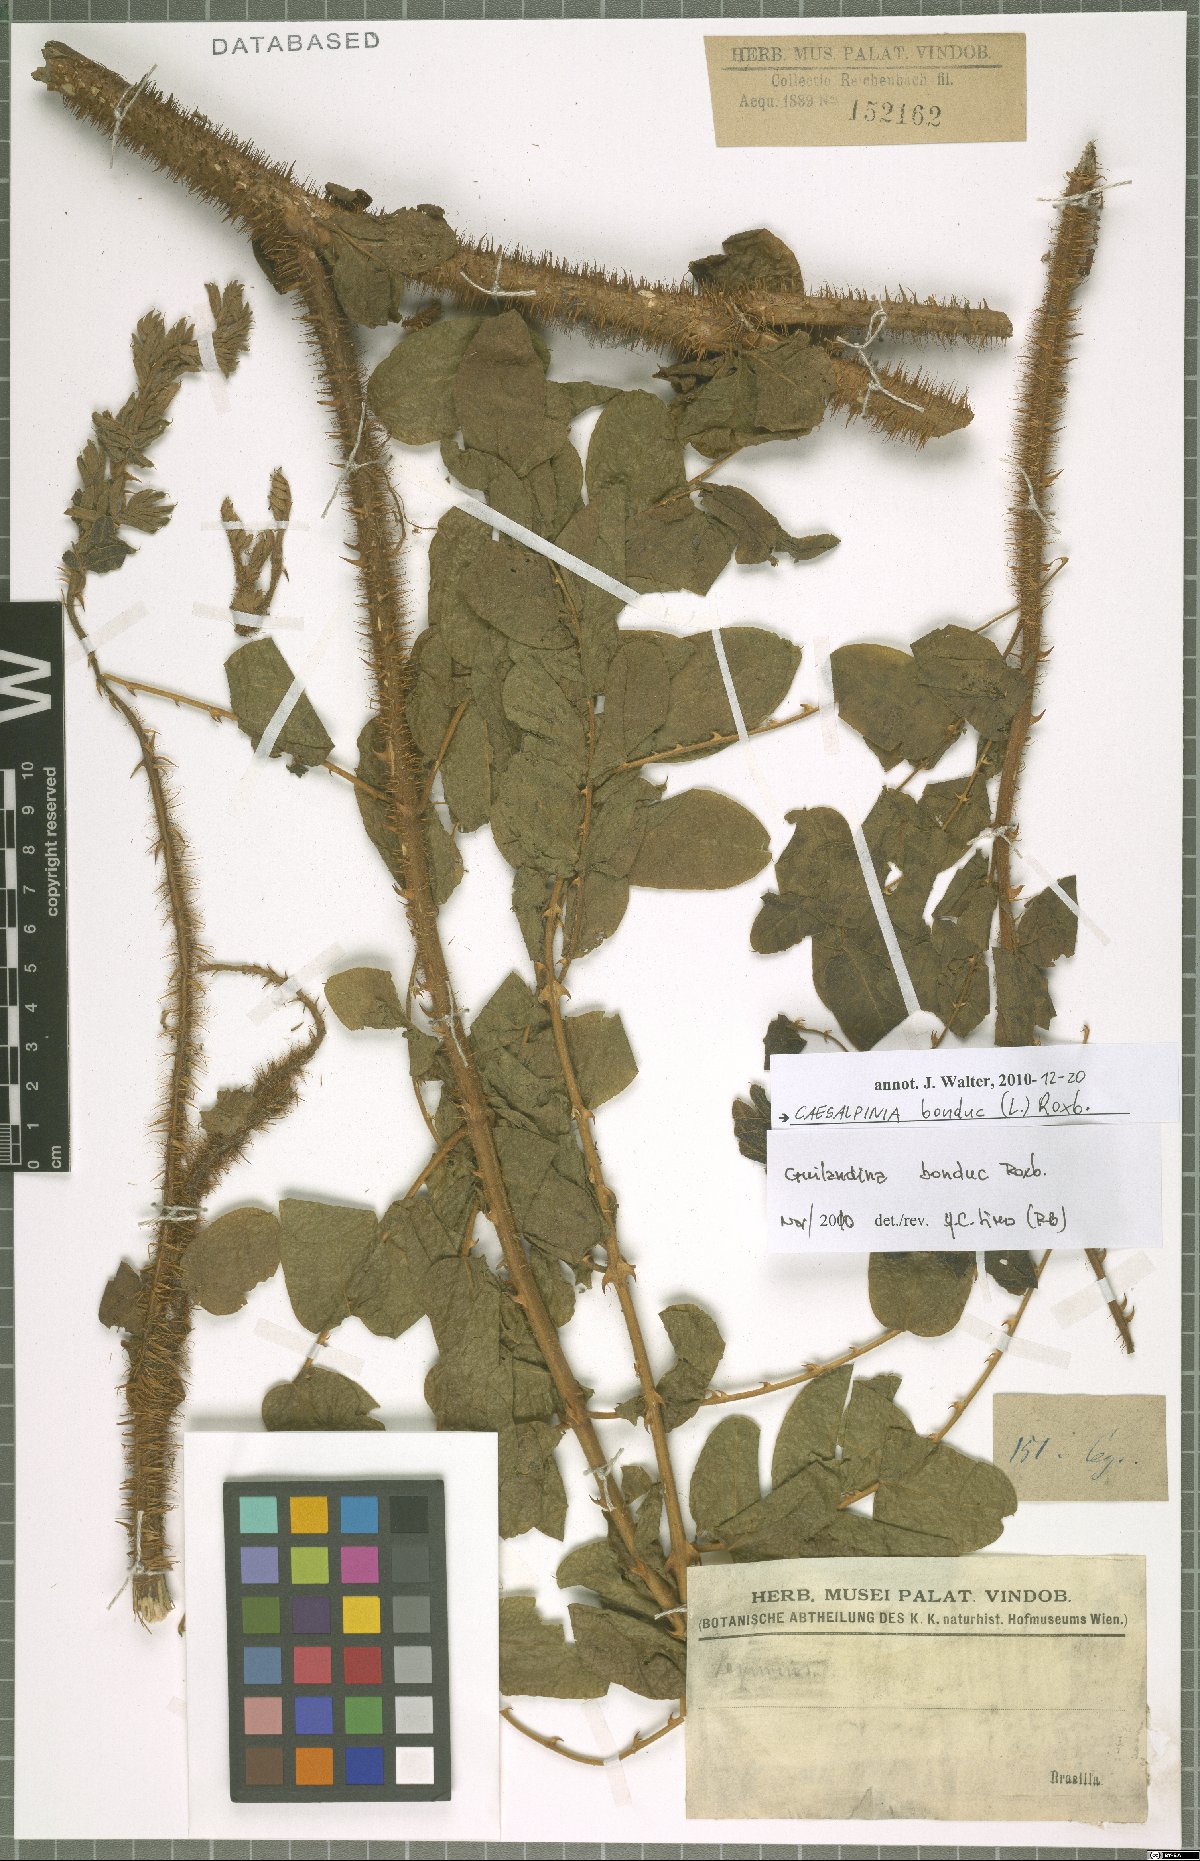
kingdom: Plantae
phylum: Tracheophyta
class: Magnoliopsida
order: Fabales
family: Fabaceae
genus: Guilandina
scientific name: Guilandina bonduc
